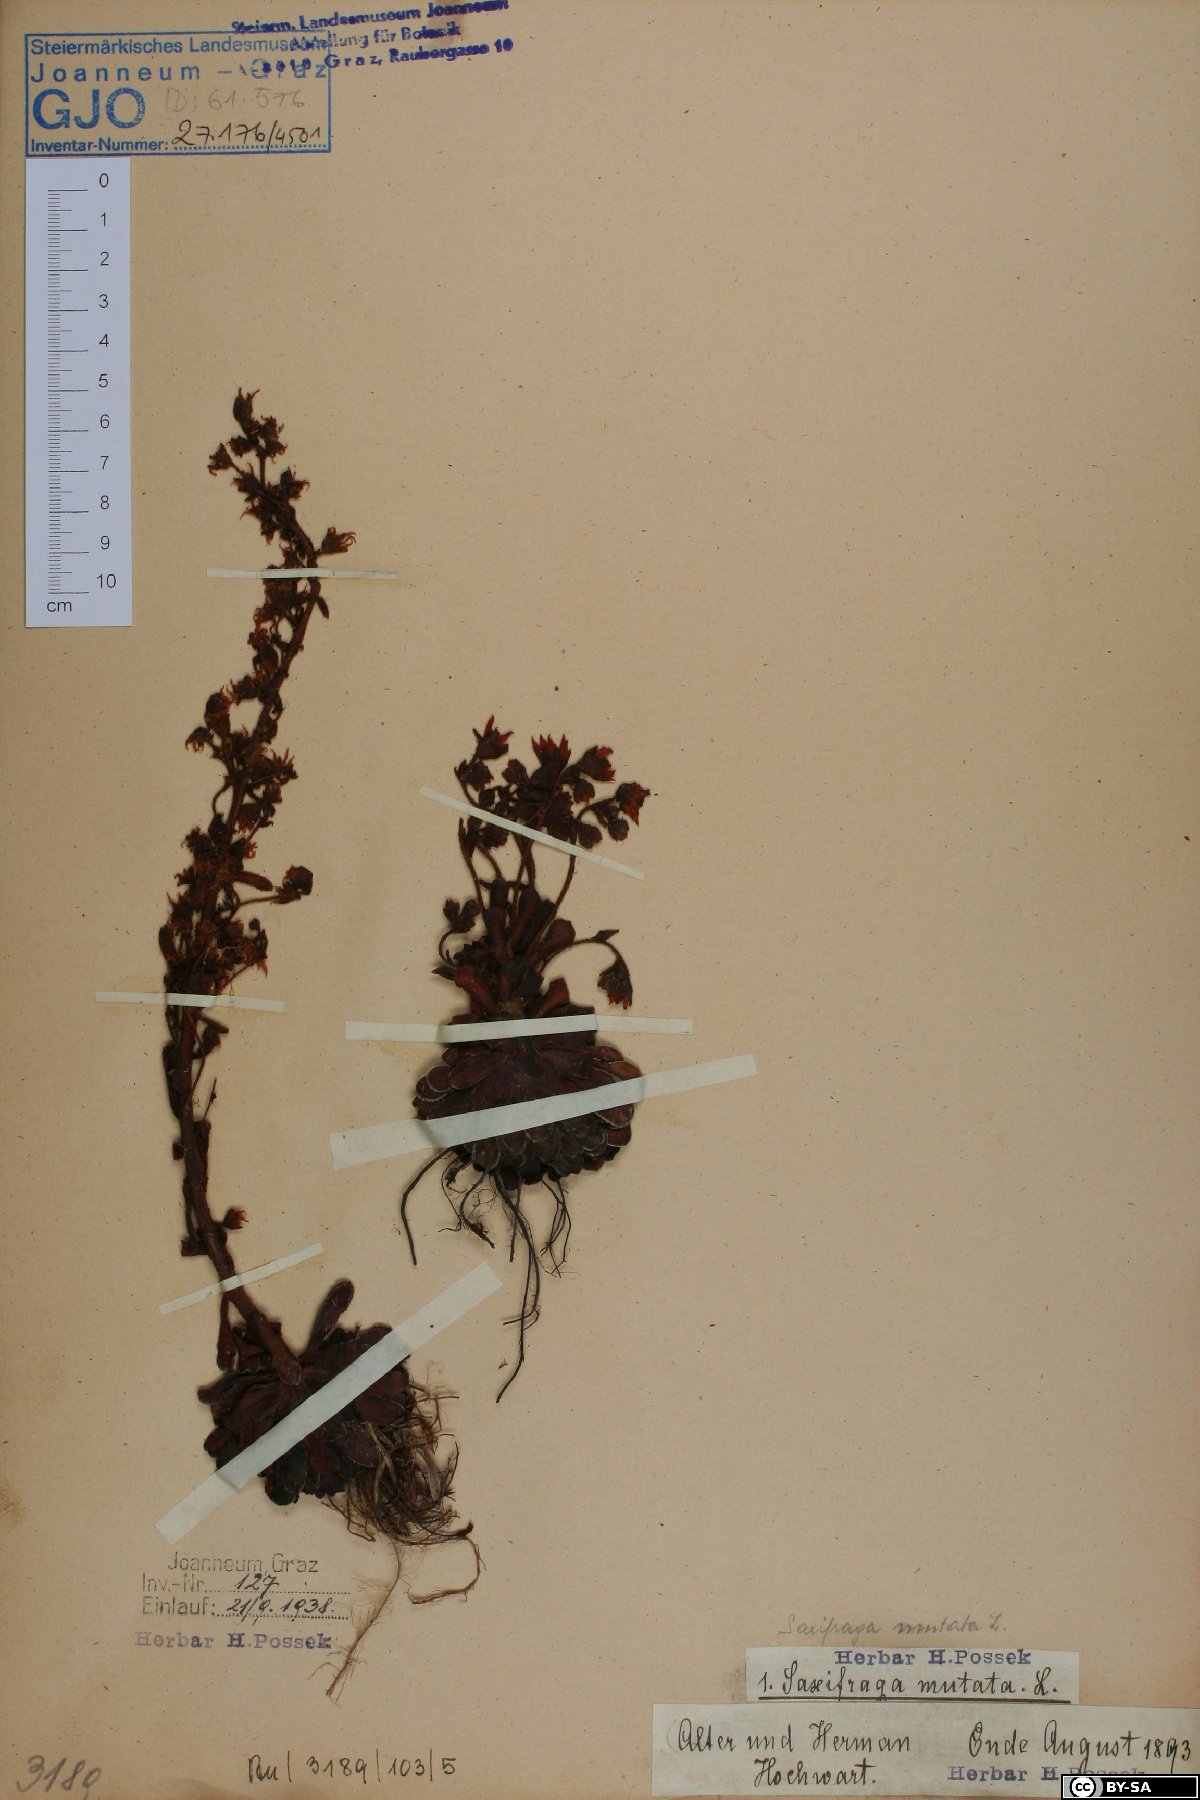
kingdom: Plantae
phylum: Tracheophyta
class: Magnoliopsida
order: Saxifragales
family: Saxifragaceae
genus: Saxifraga
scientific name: Saxifraga mutata
